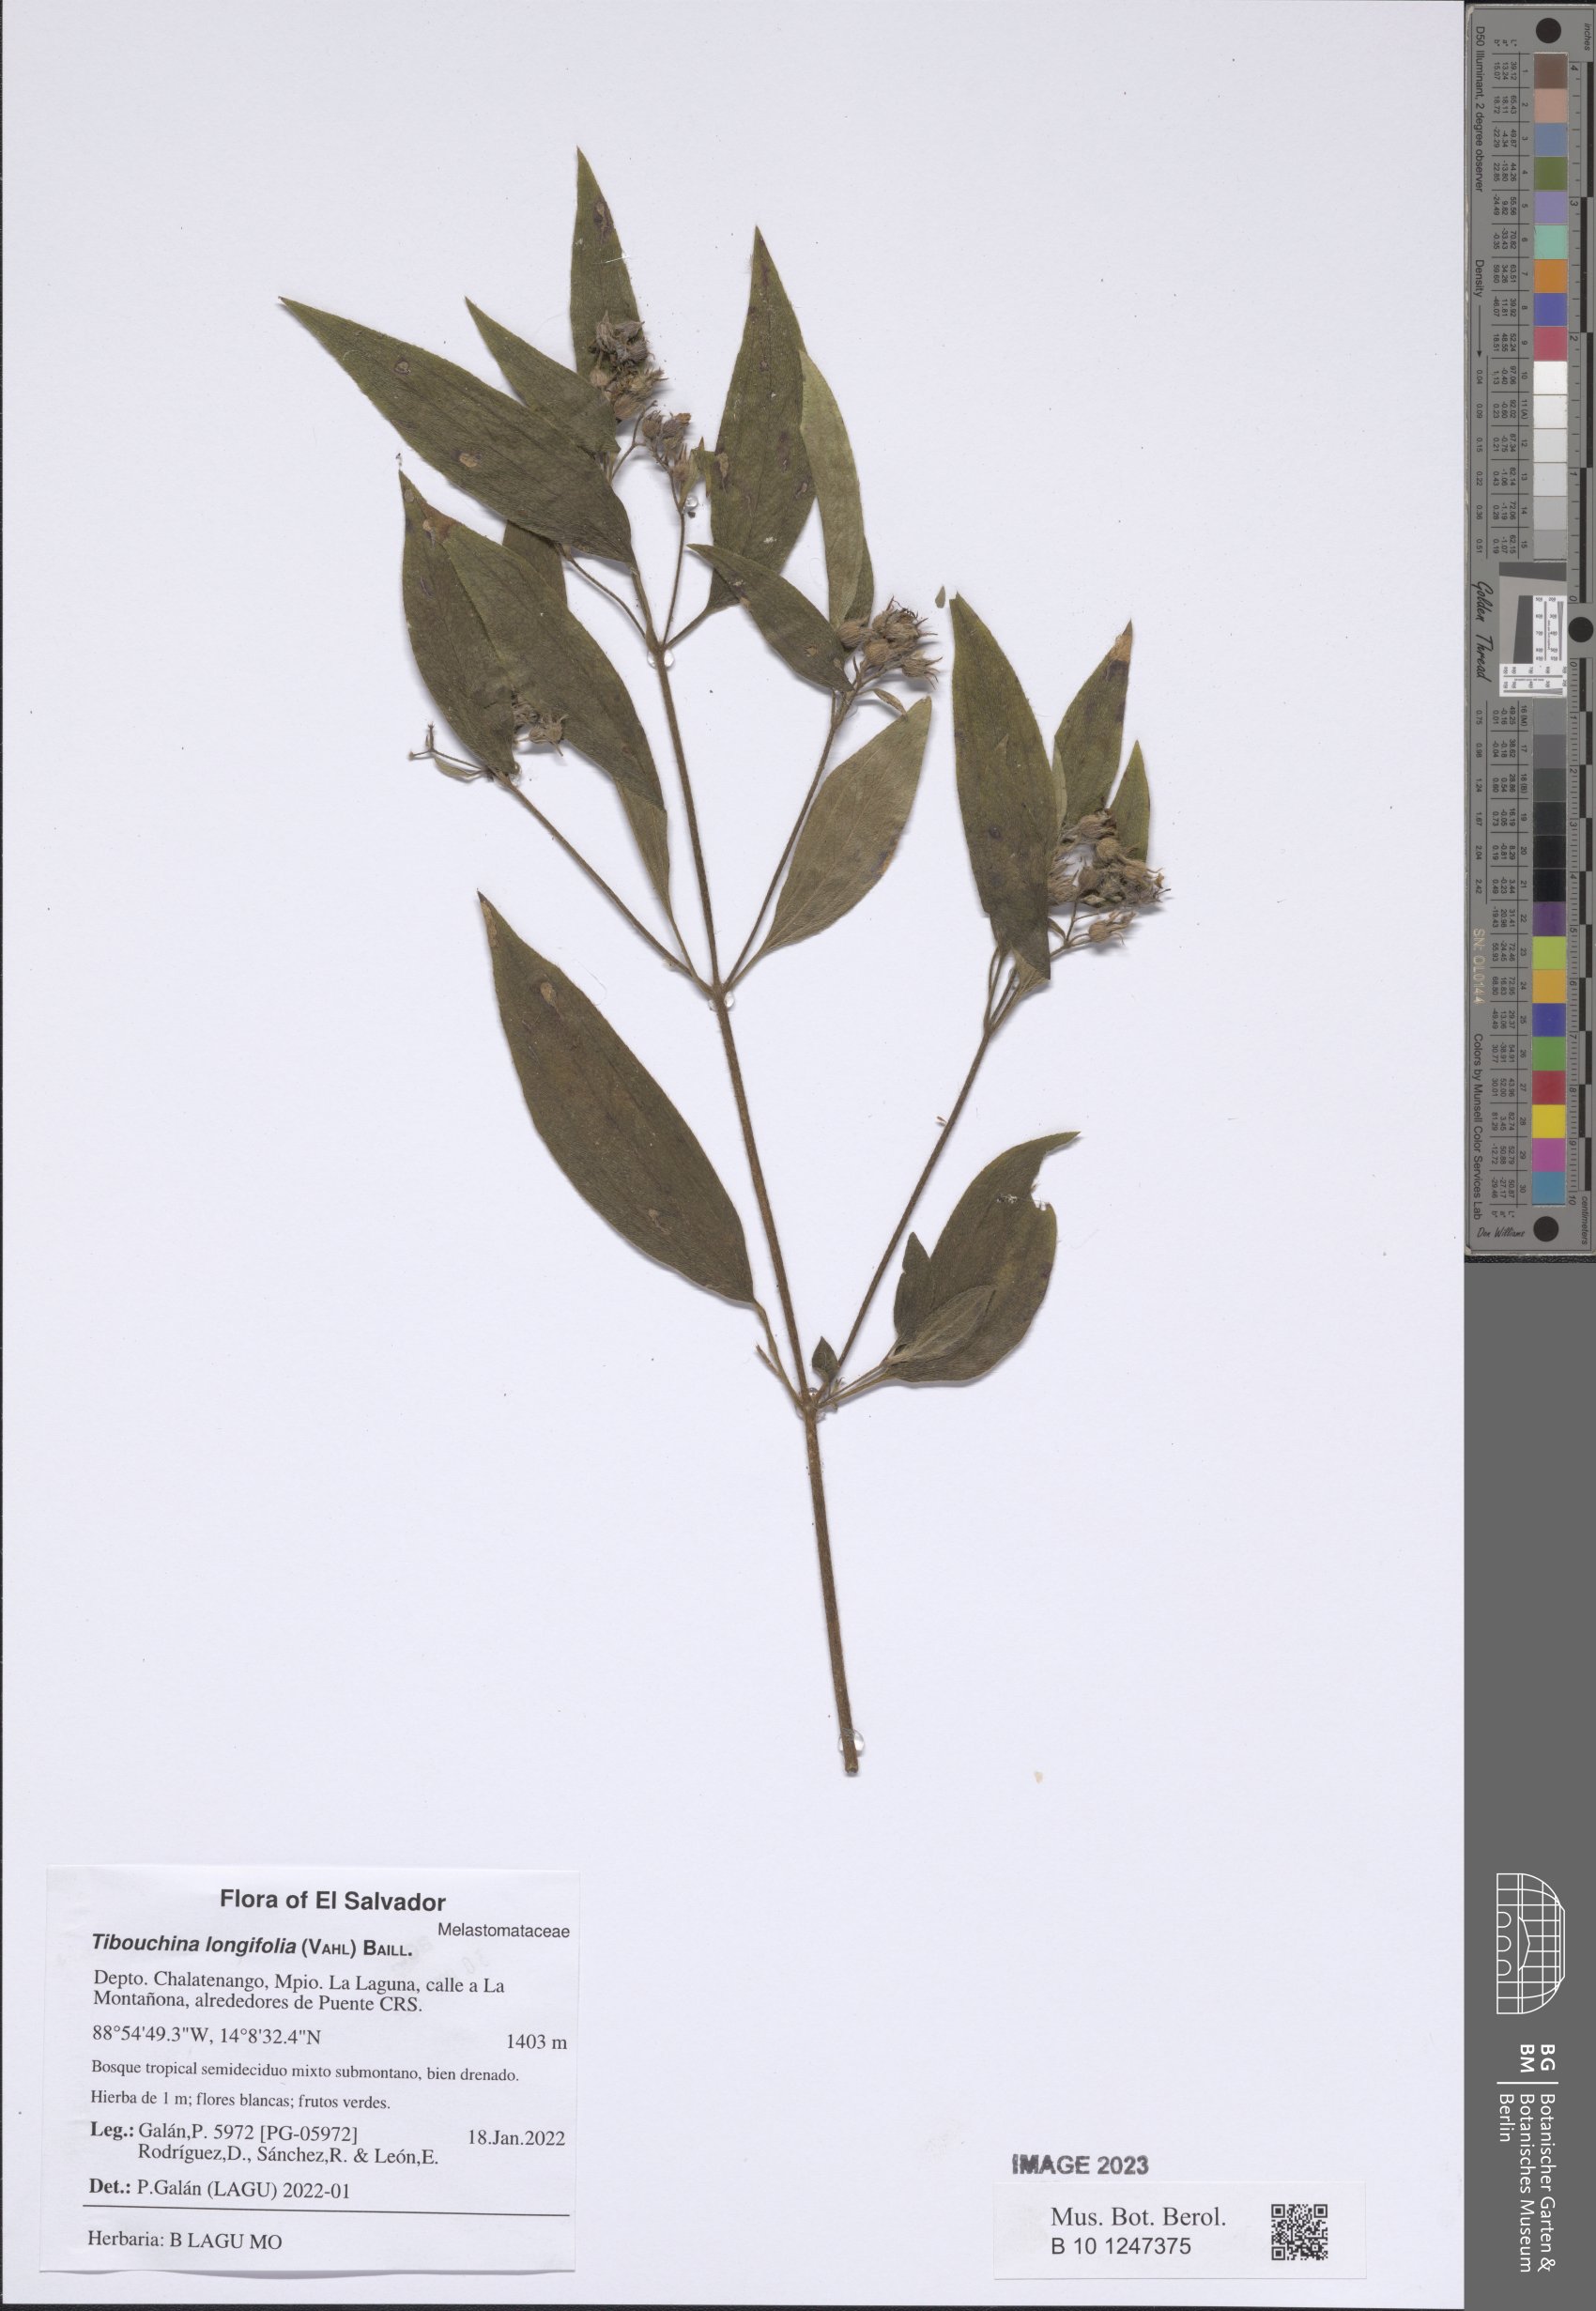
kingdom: Plantae
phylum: Tracheophyta
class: Magnoliopsida
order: Myrtales
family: Melastomataceae
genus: Chaetogastra
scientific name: Chaetogastra longifolia
